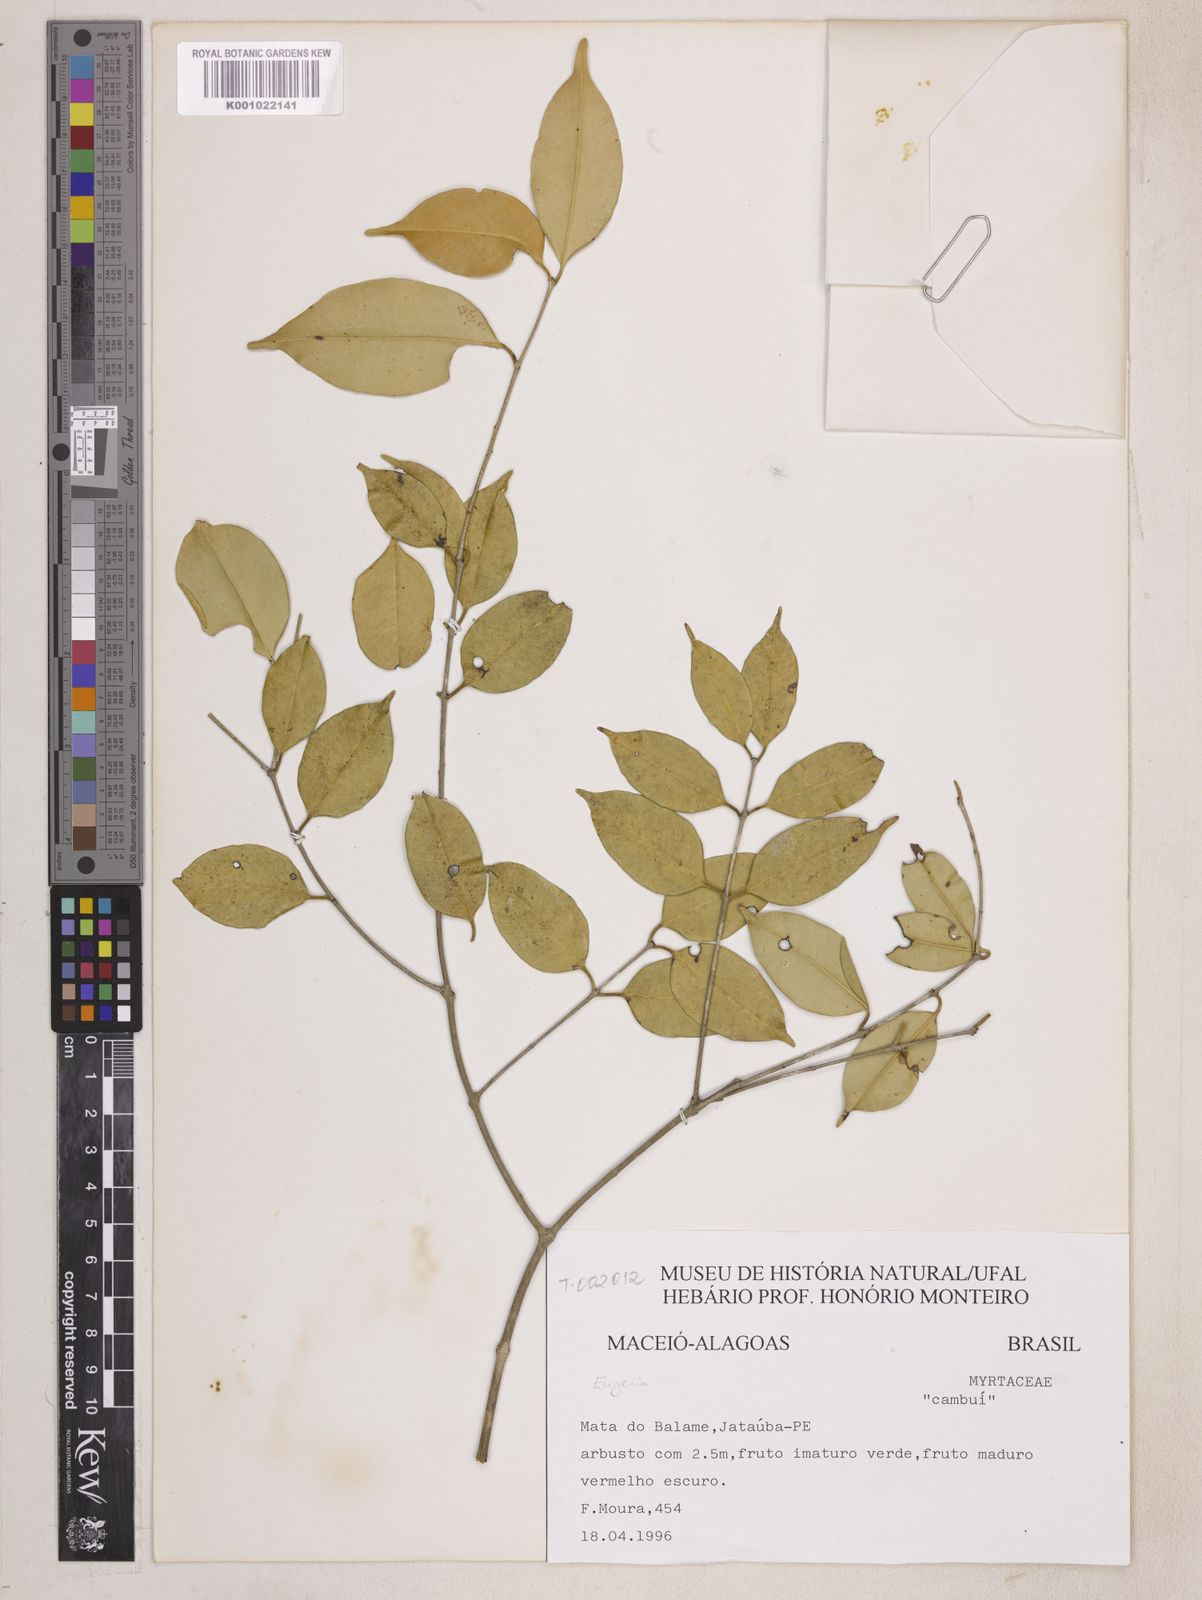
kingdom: Plantae
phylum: Tracheophyta
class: Magnoliopsida
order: Myrtales
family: Myrtaceae
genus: Plinia
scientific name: Plinia rivularis
